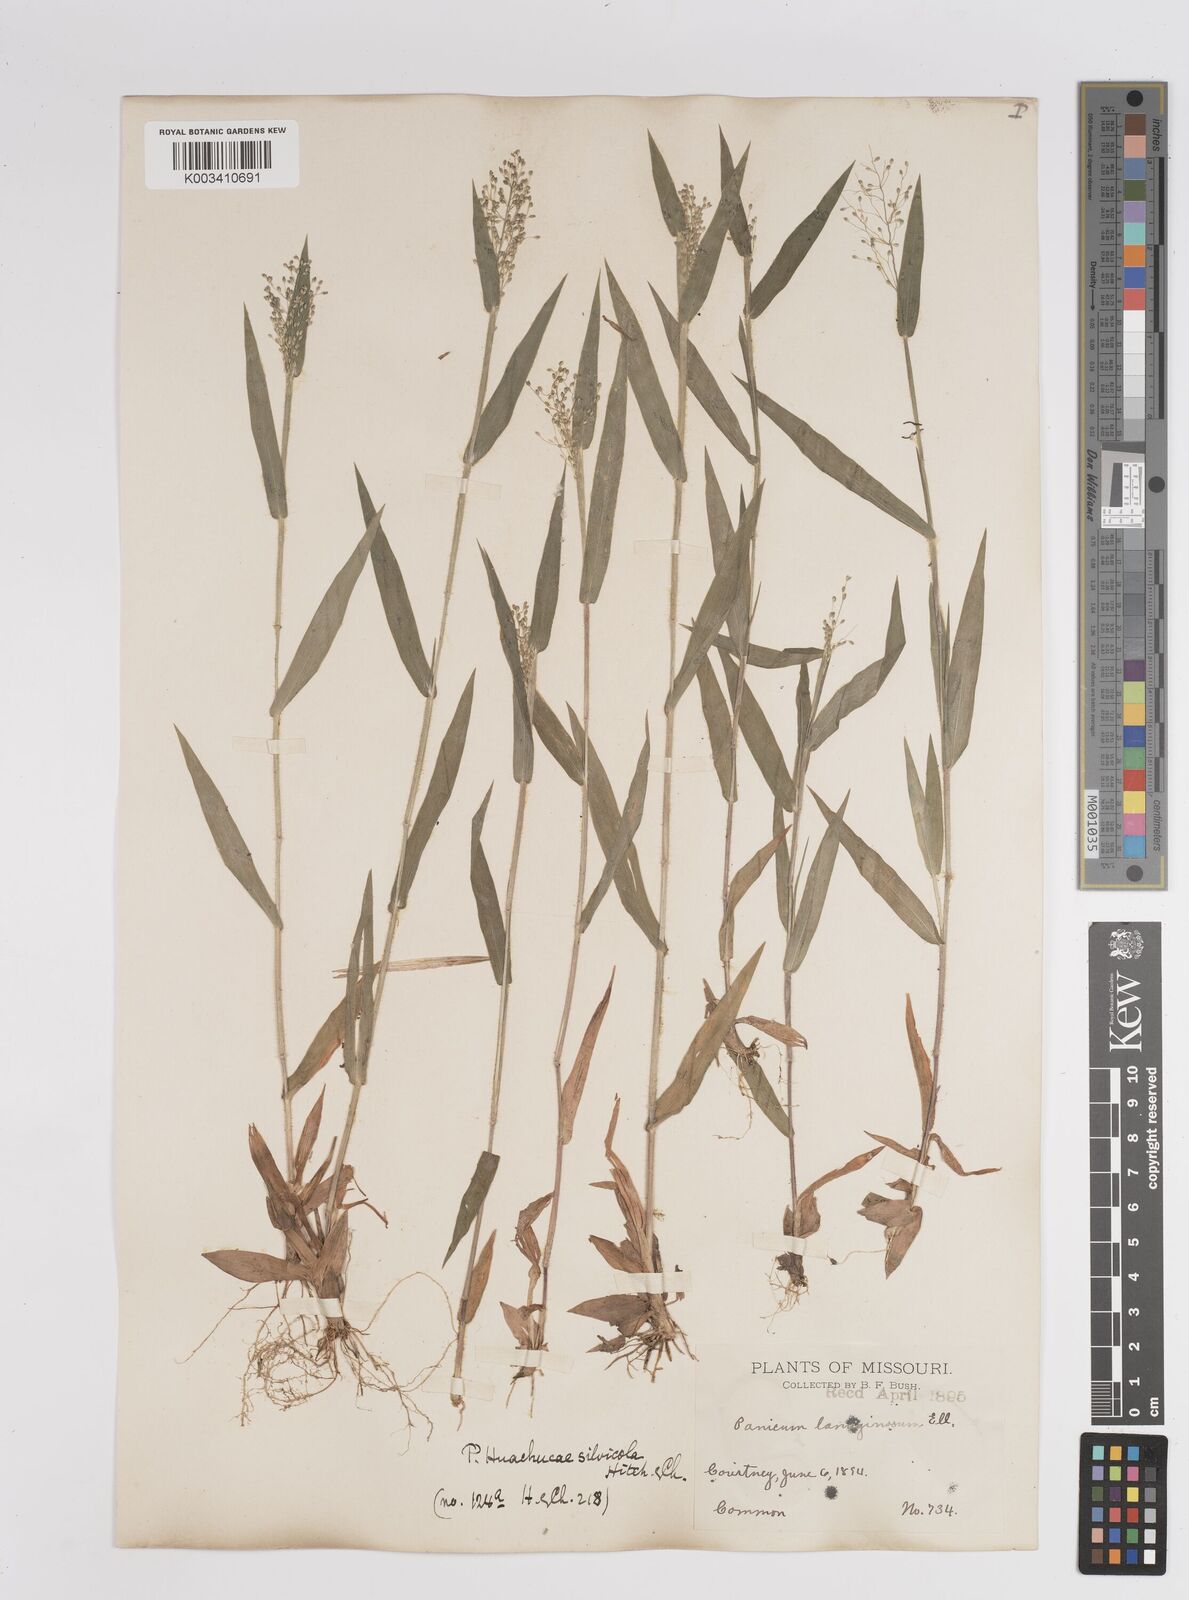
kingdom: Plantae
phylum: Tracheophyta
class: Liliopsida
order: Poales
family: Poaceae
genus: Dichanthelium
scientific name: Dichanthelium lanuginosum
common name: Woolly panicgrass
